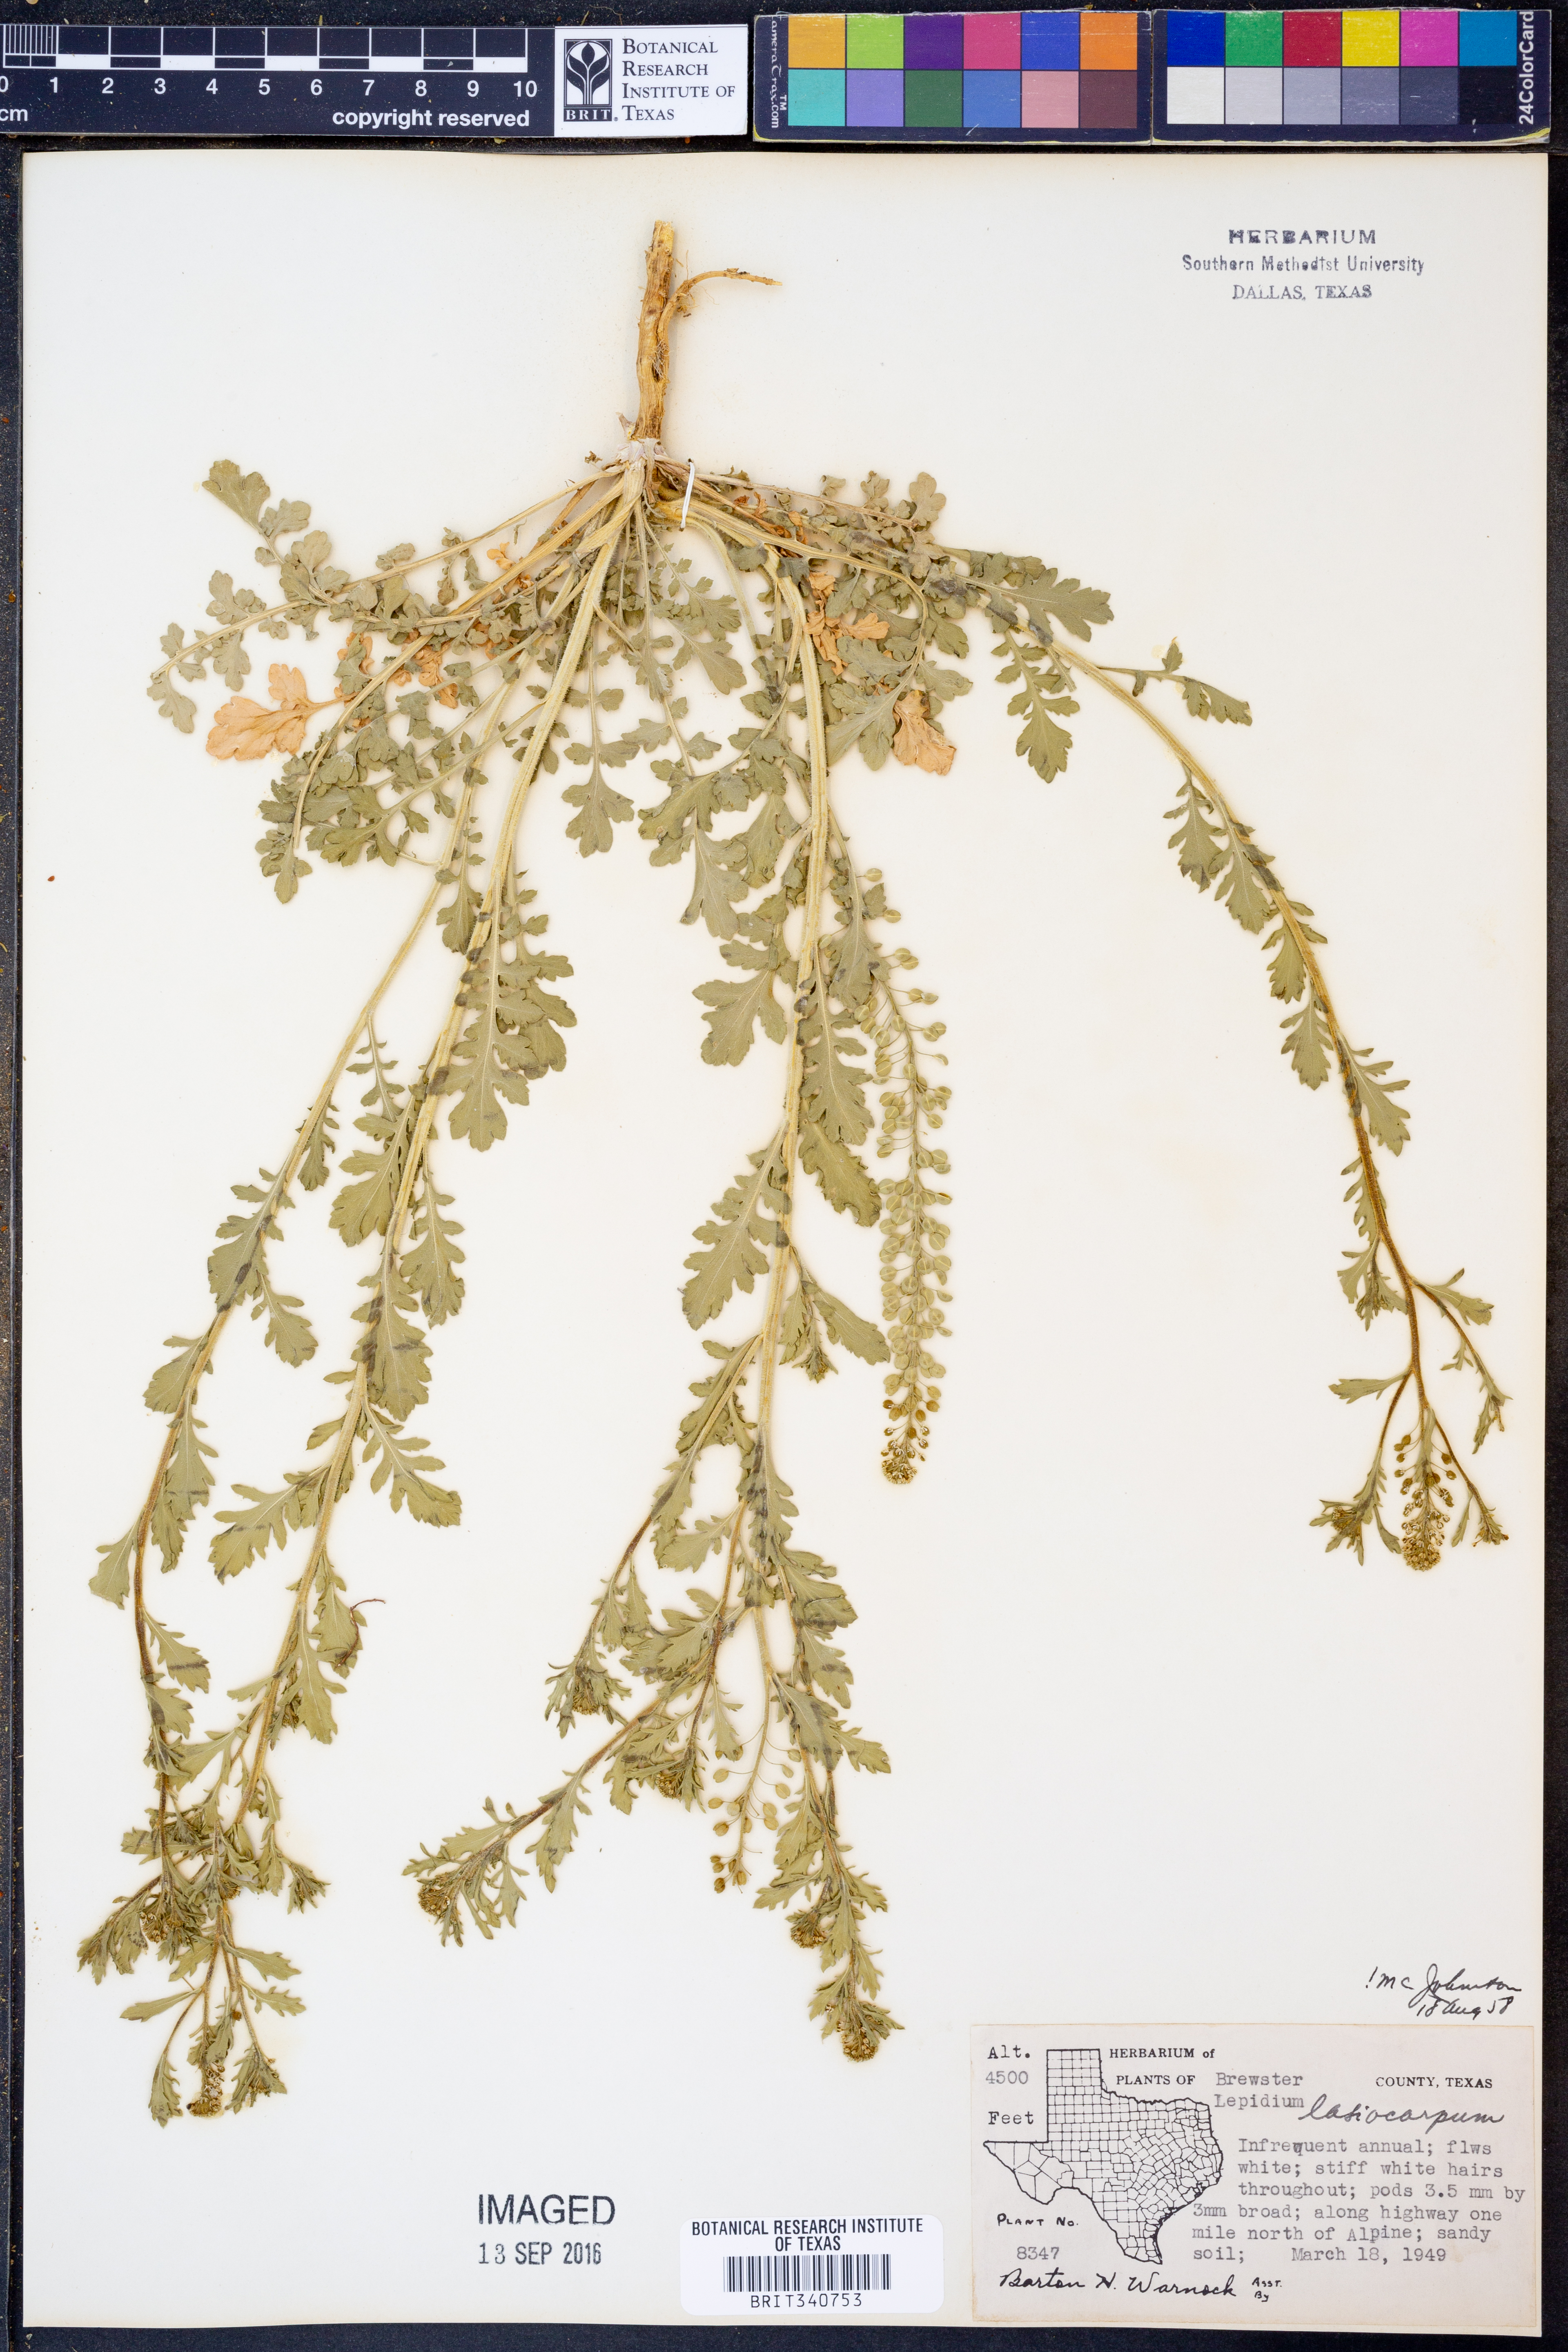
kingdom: Plantae
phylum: Tracheophyta
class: Magnoliopsida
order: Brassicales
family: Brassicaceae
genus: Lepidium
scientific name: Lepidium lasiocarpum
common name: Hairy-pod pepperwort
